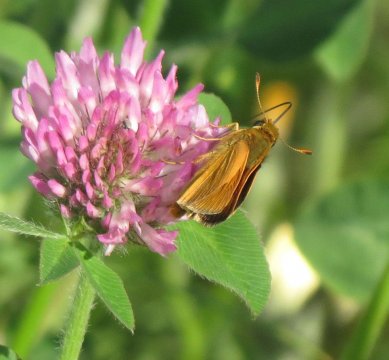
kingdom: Animalia
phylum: Arthropoda
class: Insecta
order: Lepidoptera
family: Hesperiidae
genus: Thymelicus
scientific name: Thymelicus lineola
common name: European Skipper
